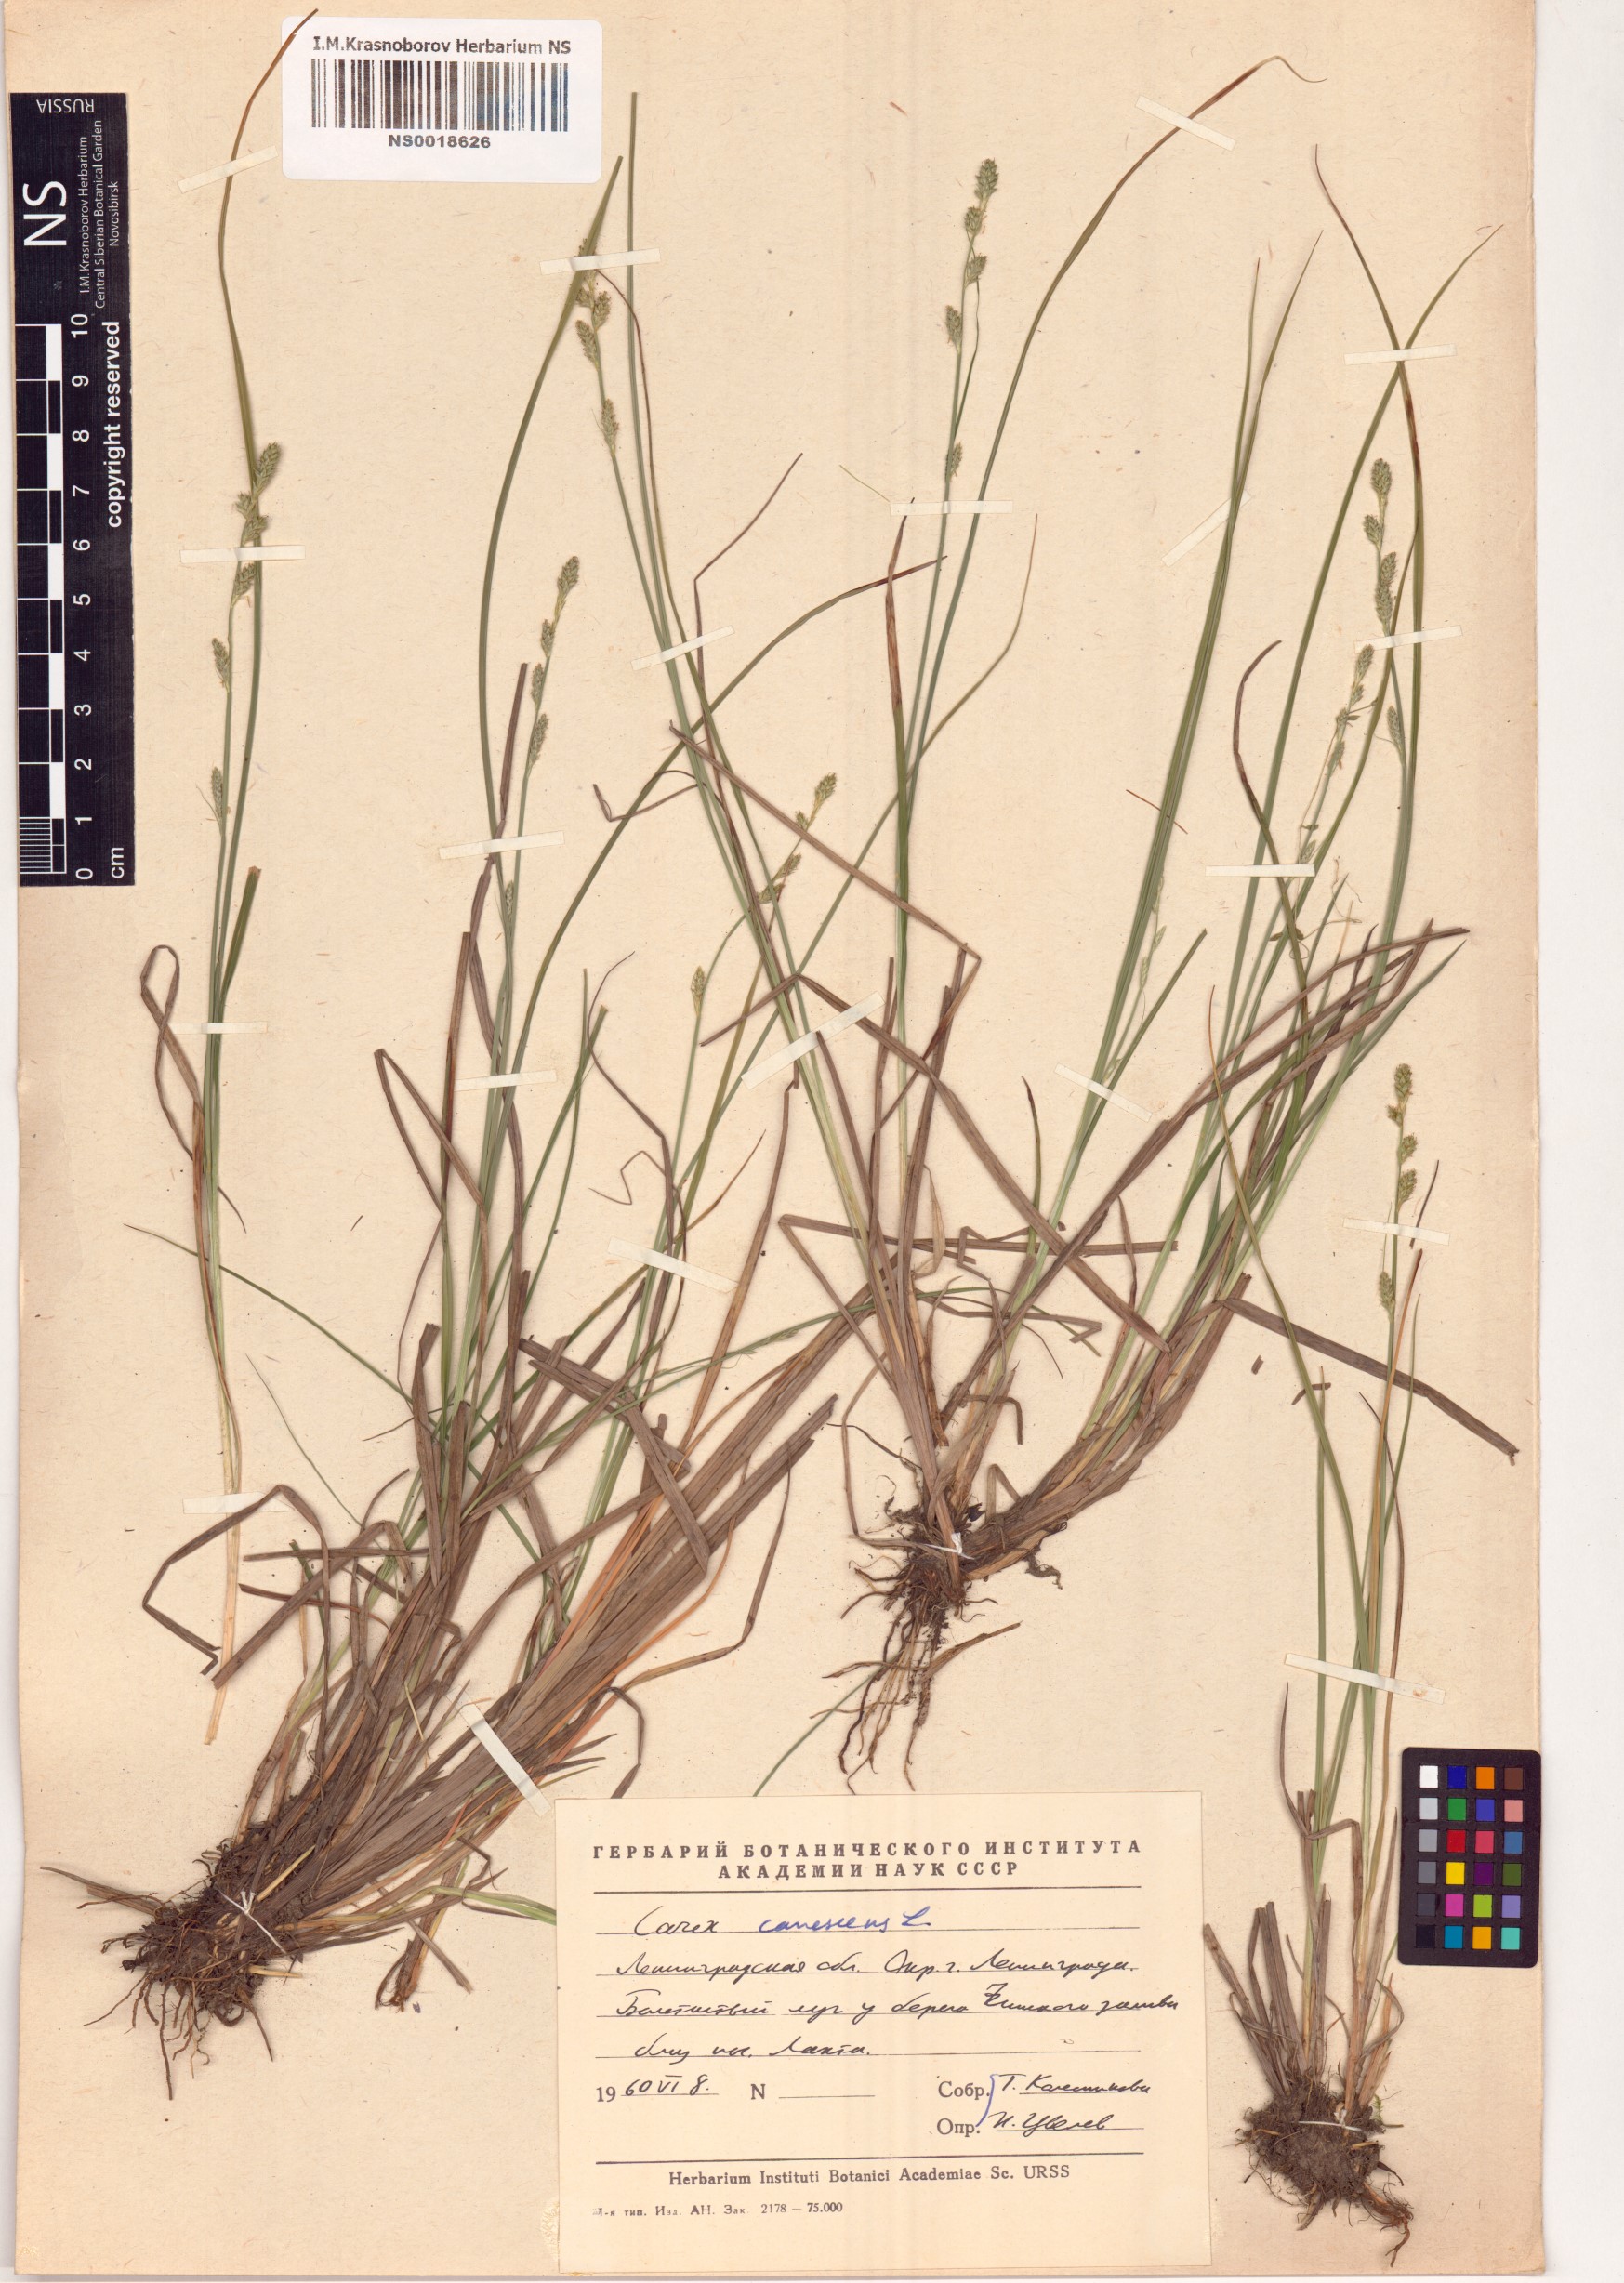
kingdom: Plantae
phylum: Tracheophyta
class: Liliopsida
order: Poales
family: Cyperaceae
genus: Carex
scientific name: Carex canescens
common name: White sedge
